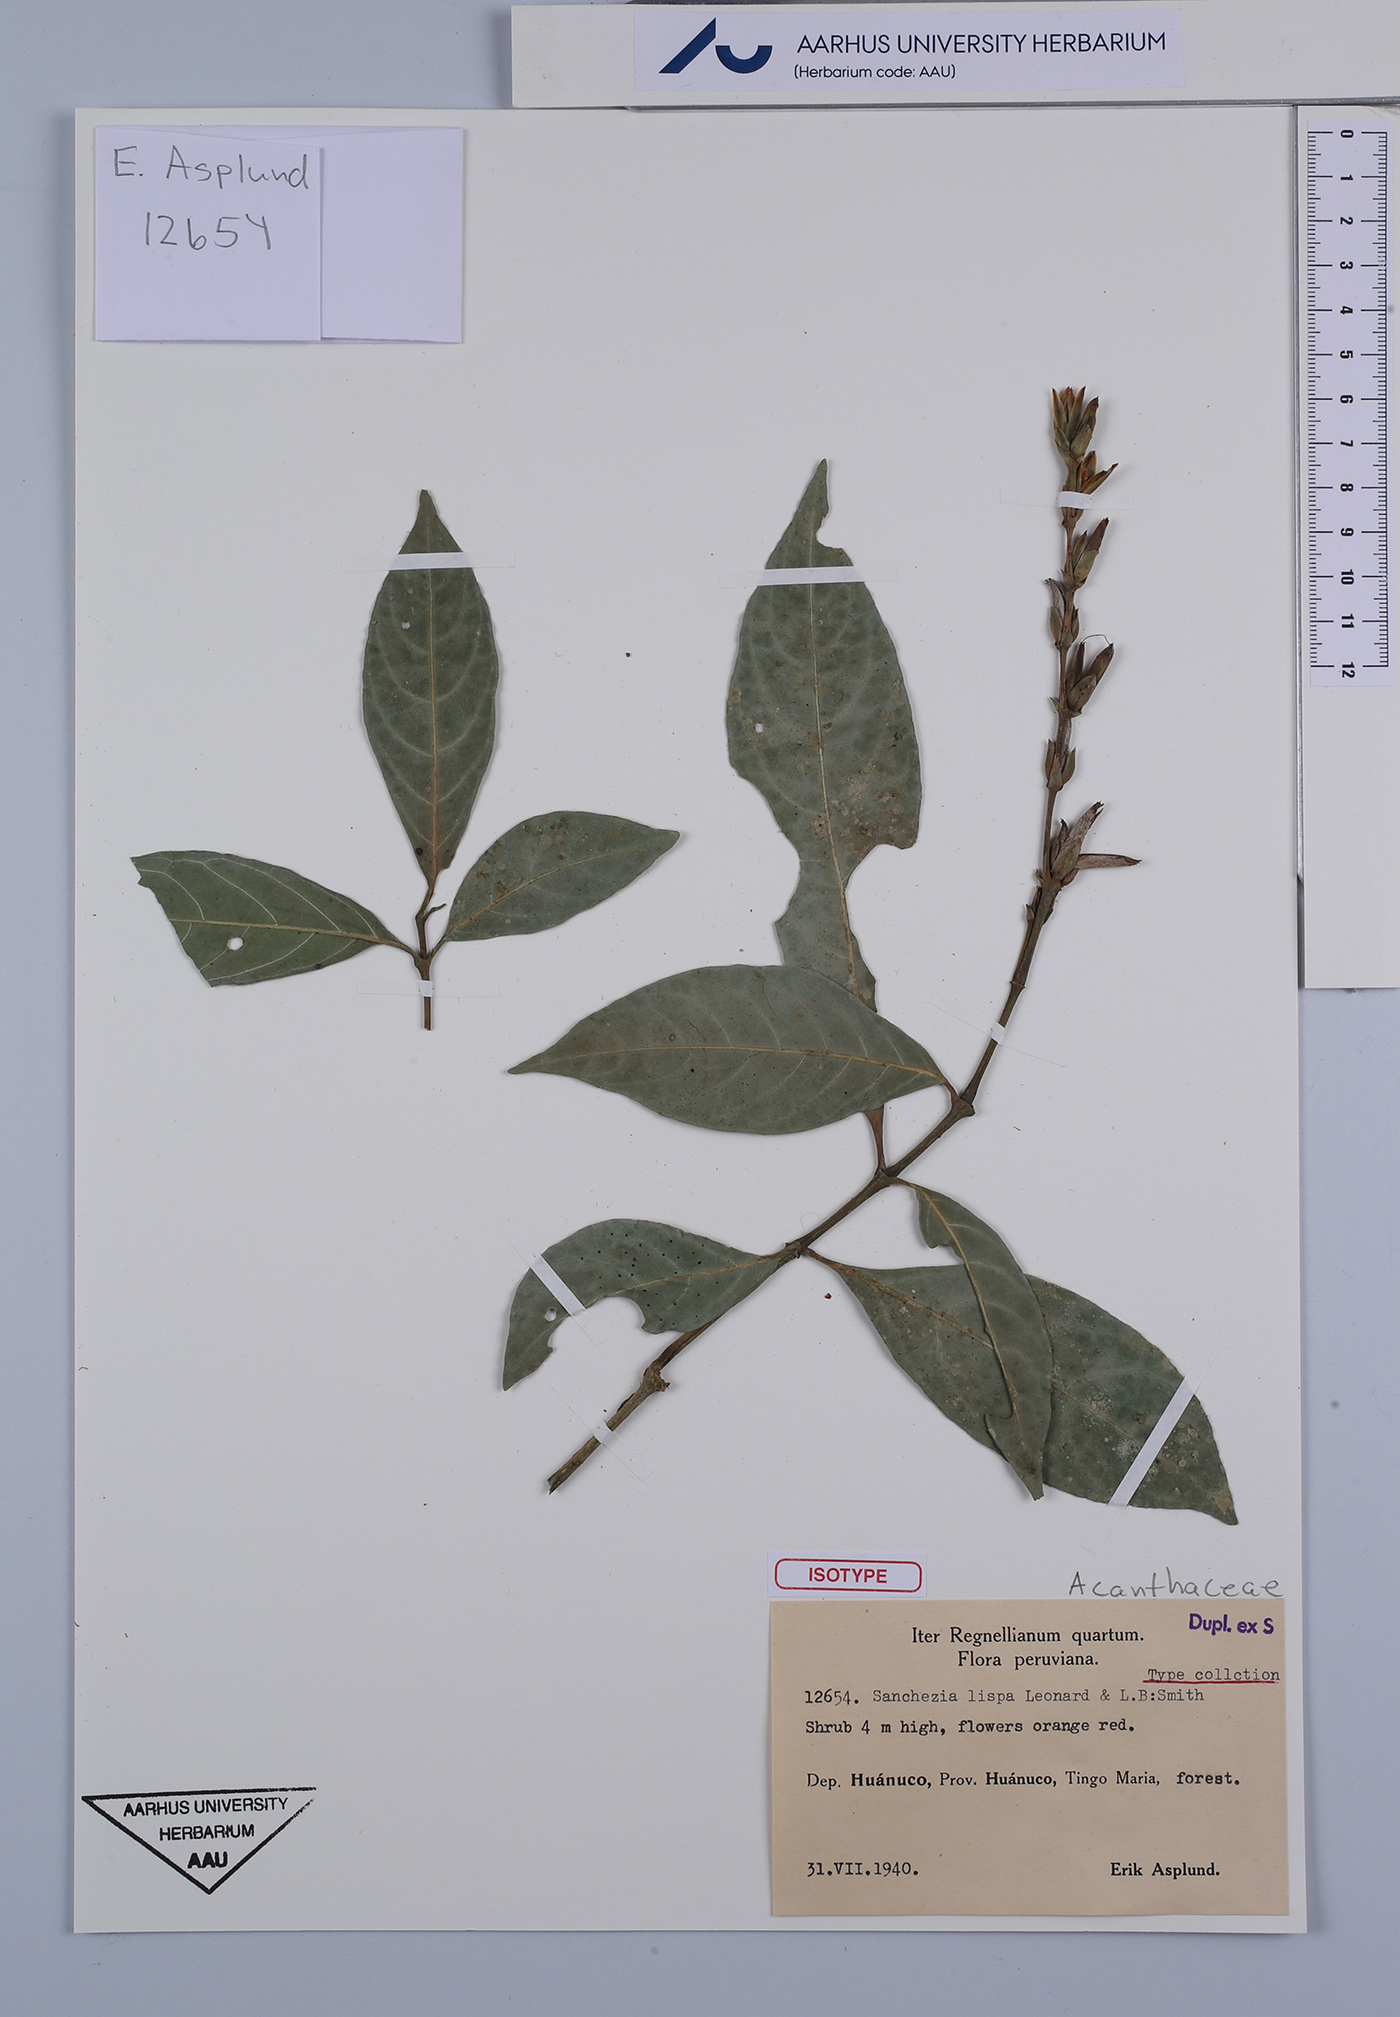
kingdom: Plantae
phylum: Tracheophyta
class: Magnoliopsida
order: Lamiales
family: Acanthaceae
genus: Sanchezia
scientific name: Sanchezia lispa
